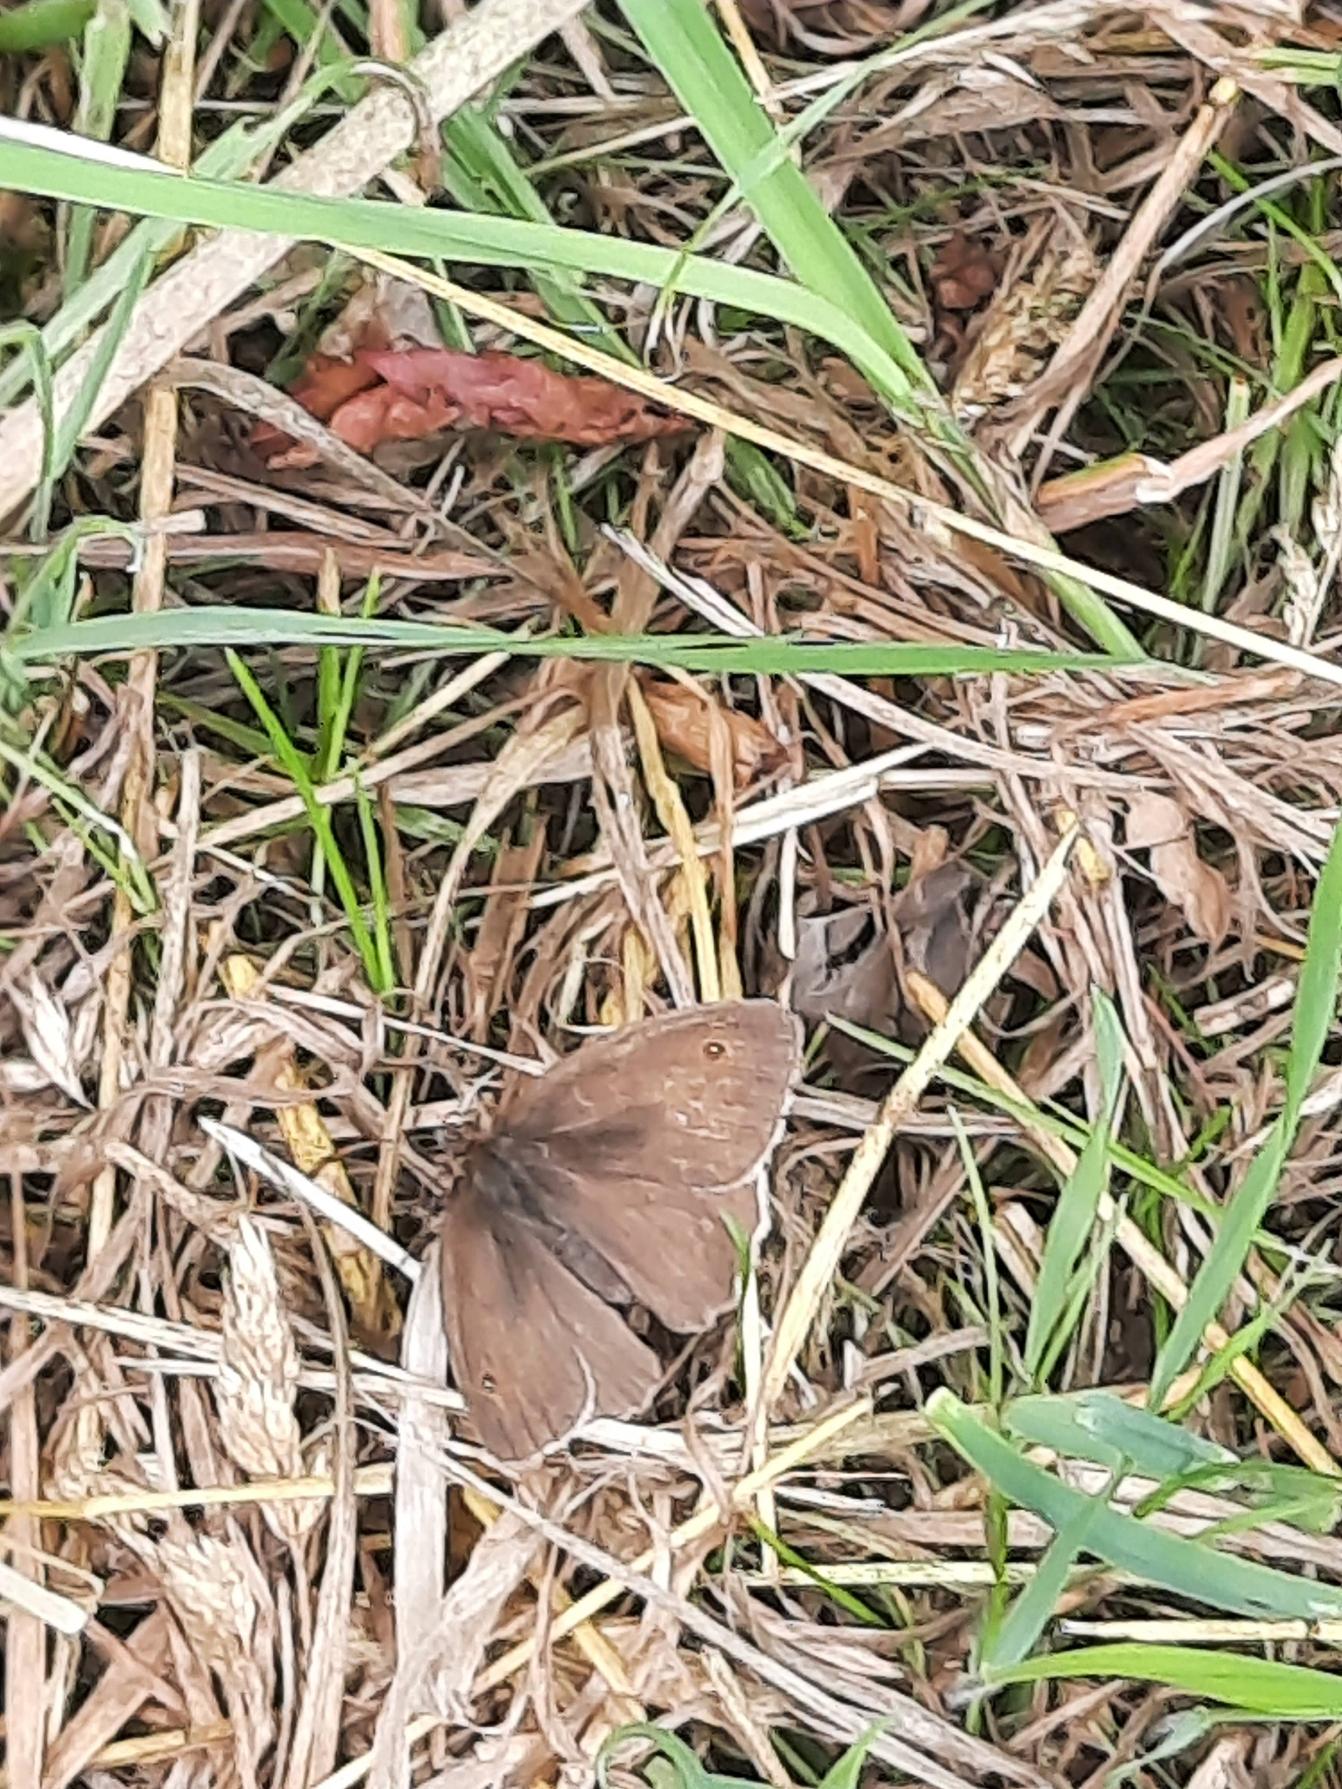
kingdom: Animalia
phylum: Arthropoda
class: Insecta
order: Lepidoptera
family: Nymphalidae
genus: Maniola
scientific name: Maniola jurtina
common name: Græsrandøje
